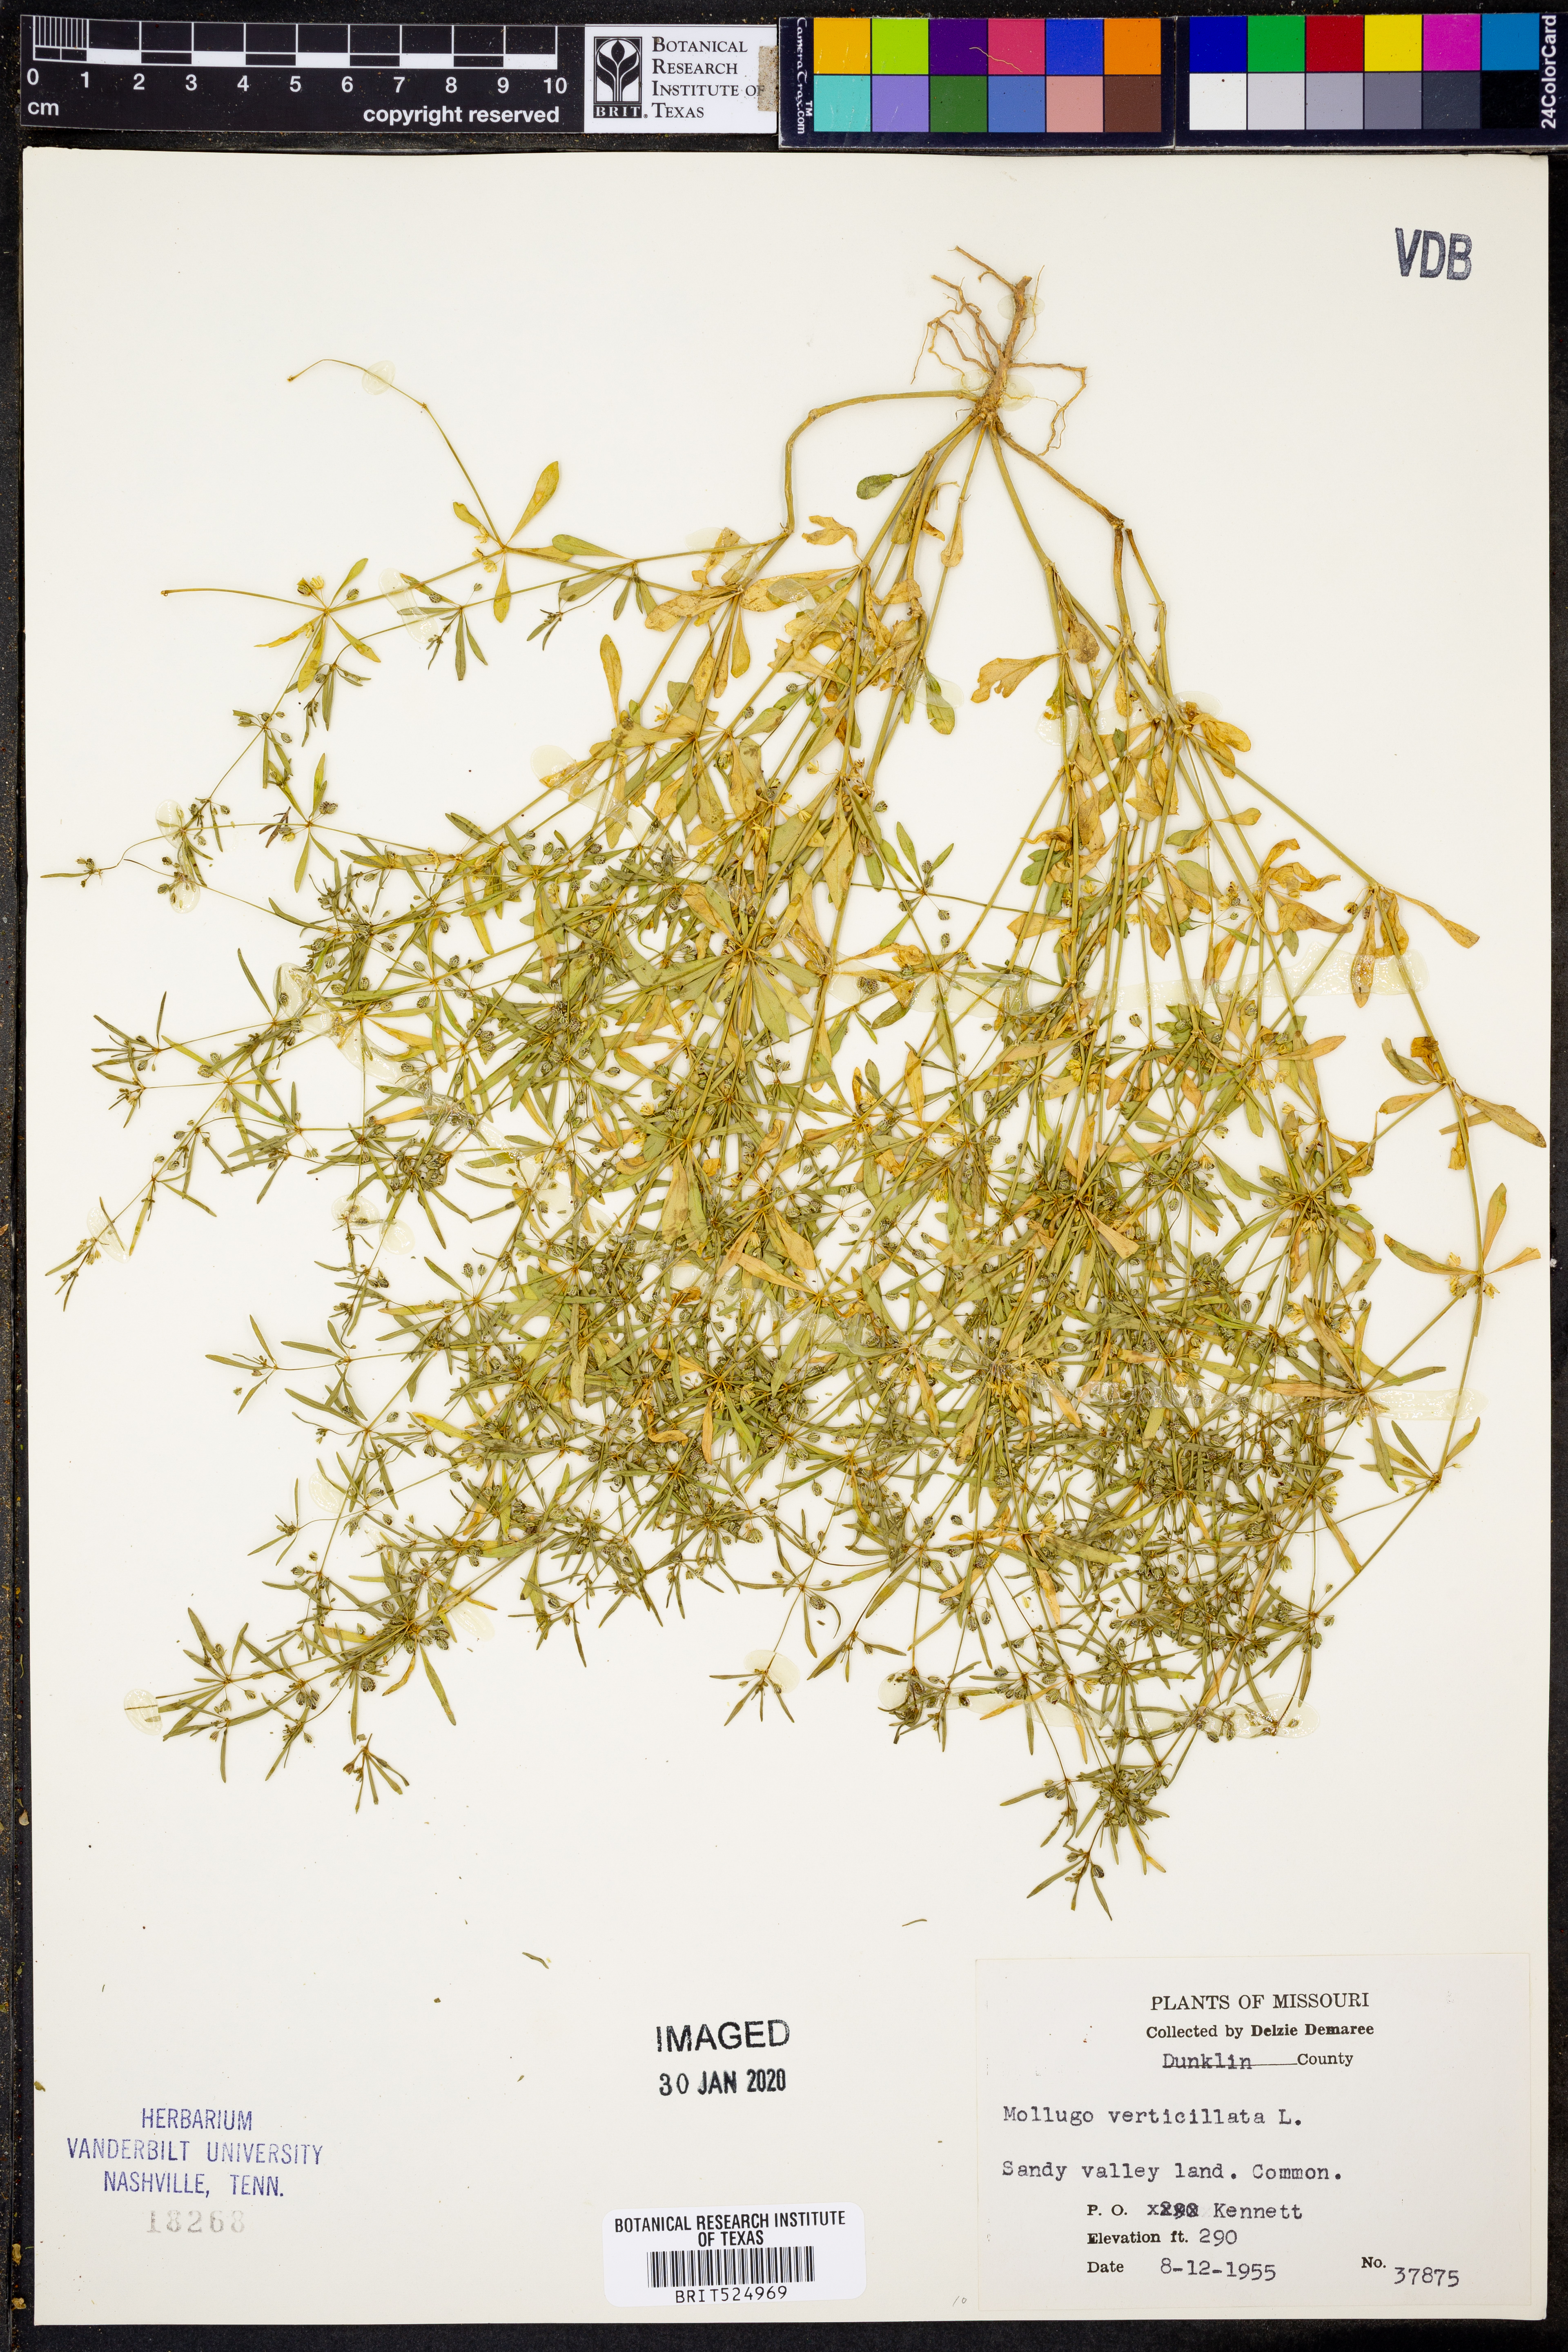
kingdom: Plantae
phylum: Tracheophyta
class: Magnoliopsida
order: Caryophyllales
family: Molluginaceae
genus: Mollugo
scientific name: Mollugo verticillata
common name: Green carpetweed
